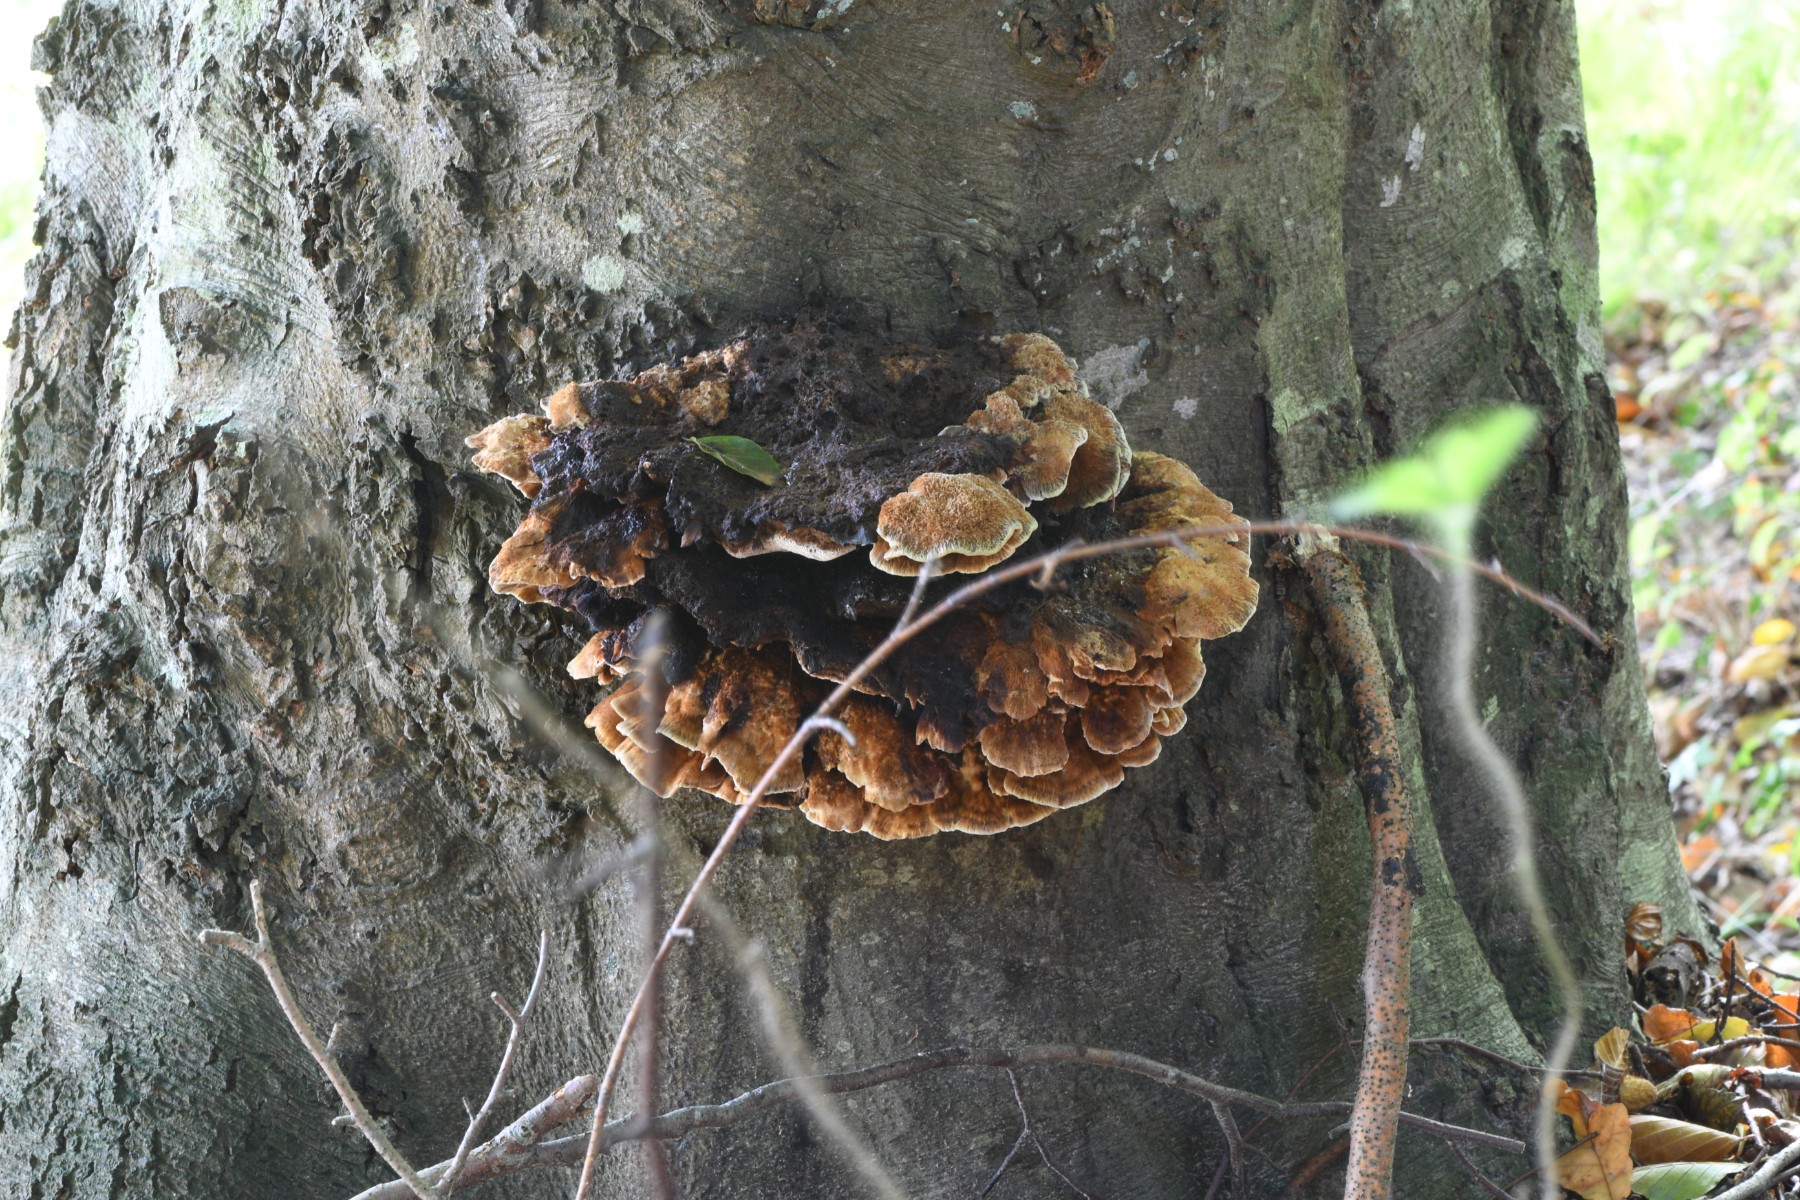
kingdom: Fungi
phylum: Basidiomycota
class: Agaricomycetes
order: Hymenochaetales
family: Hymenochaetaceae
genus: Inonotus
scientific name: Inonotus cuticularis
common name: kroghåret spejlporesvamp
